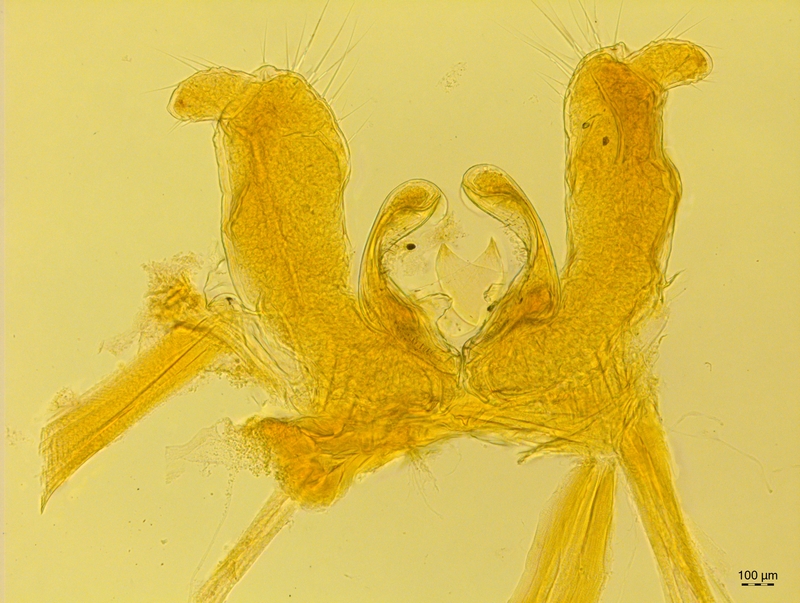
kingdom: Animalia
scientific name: Animalia
